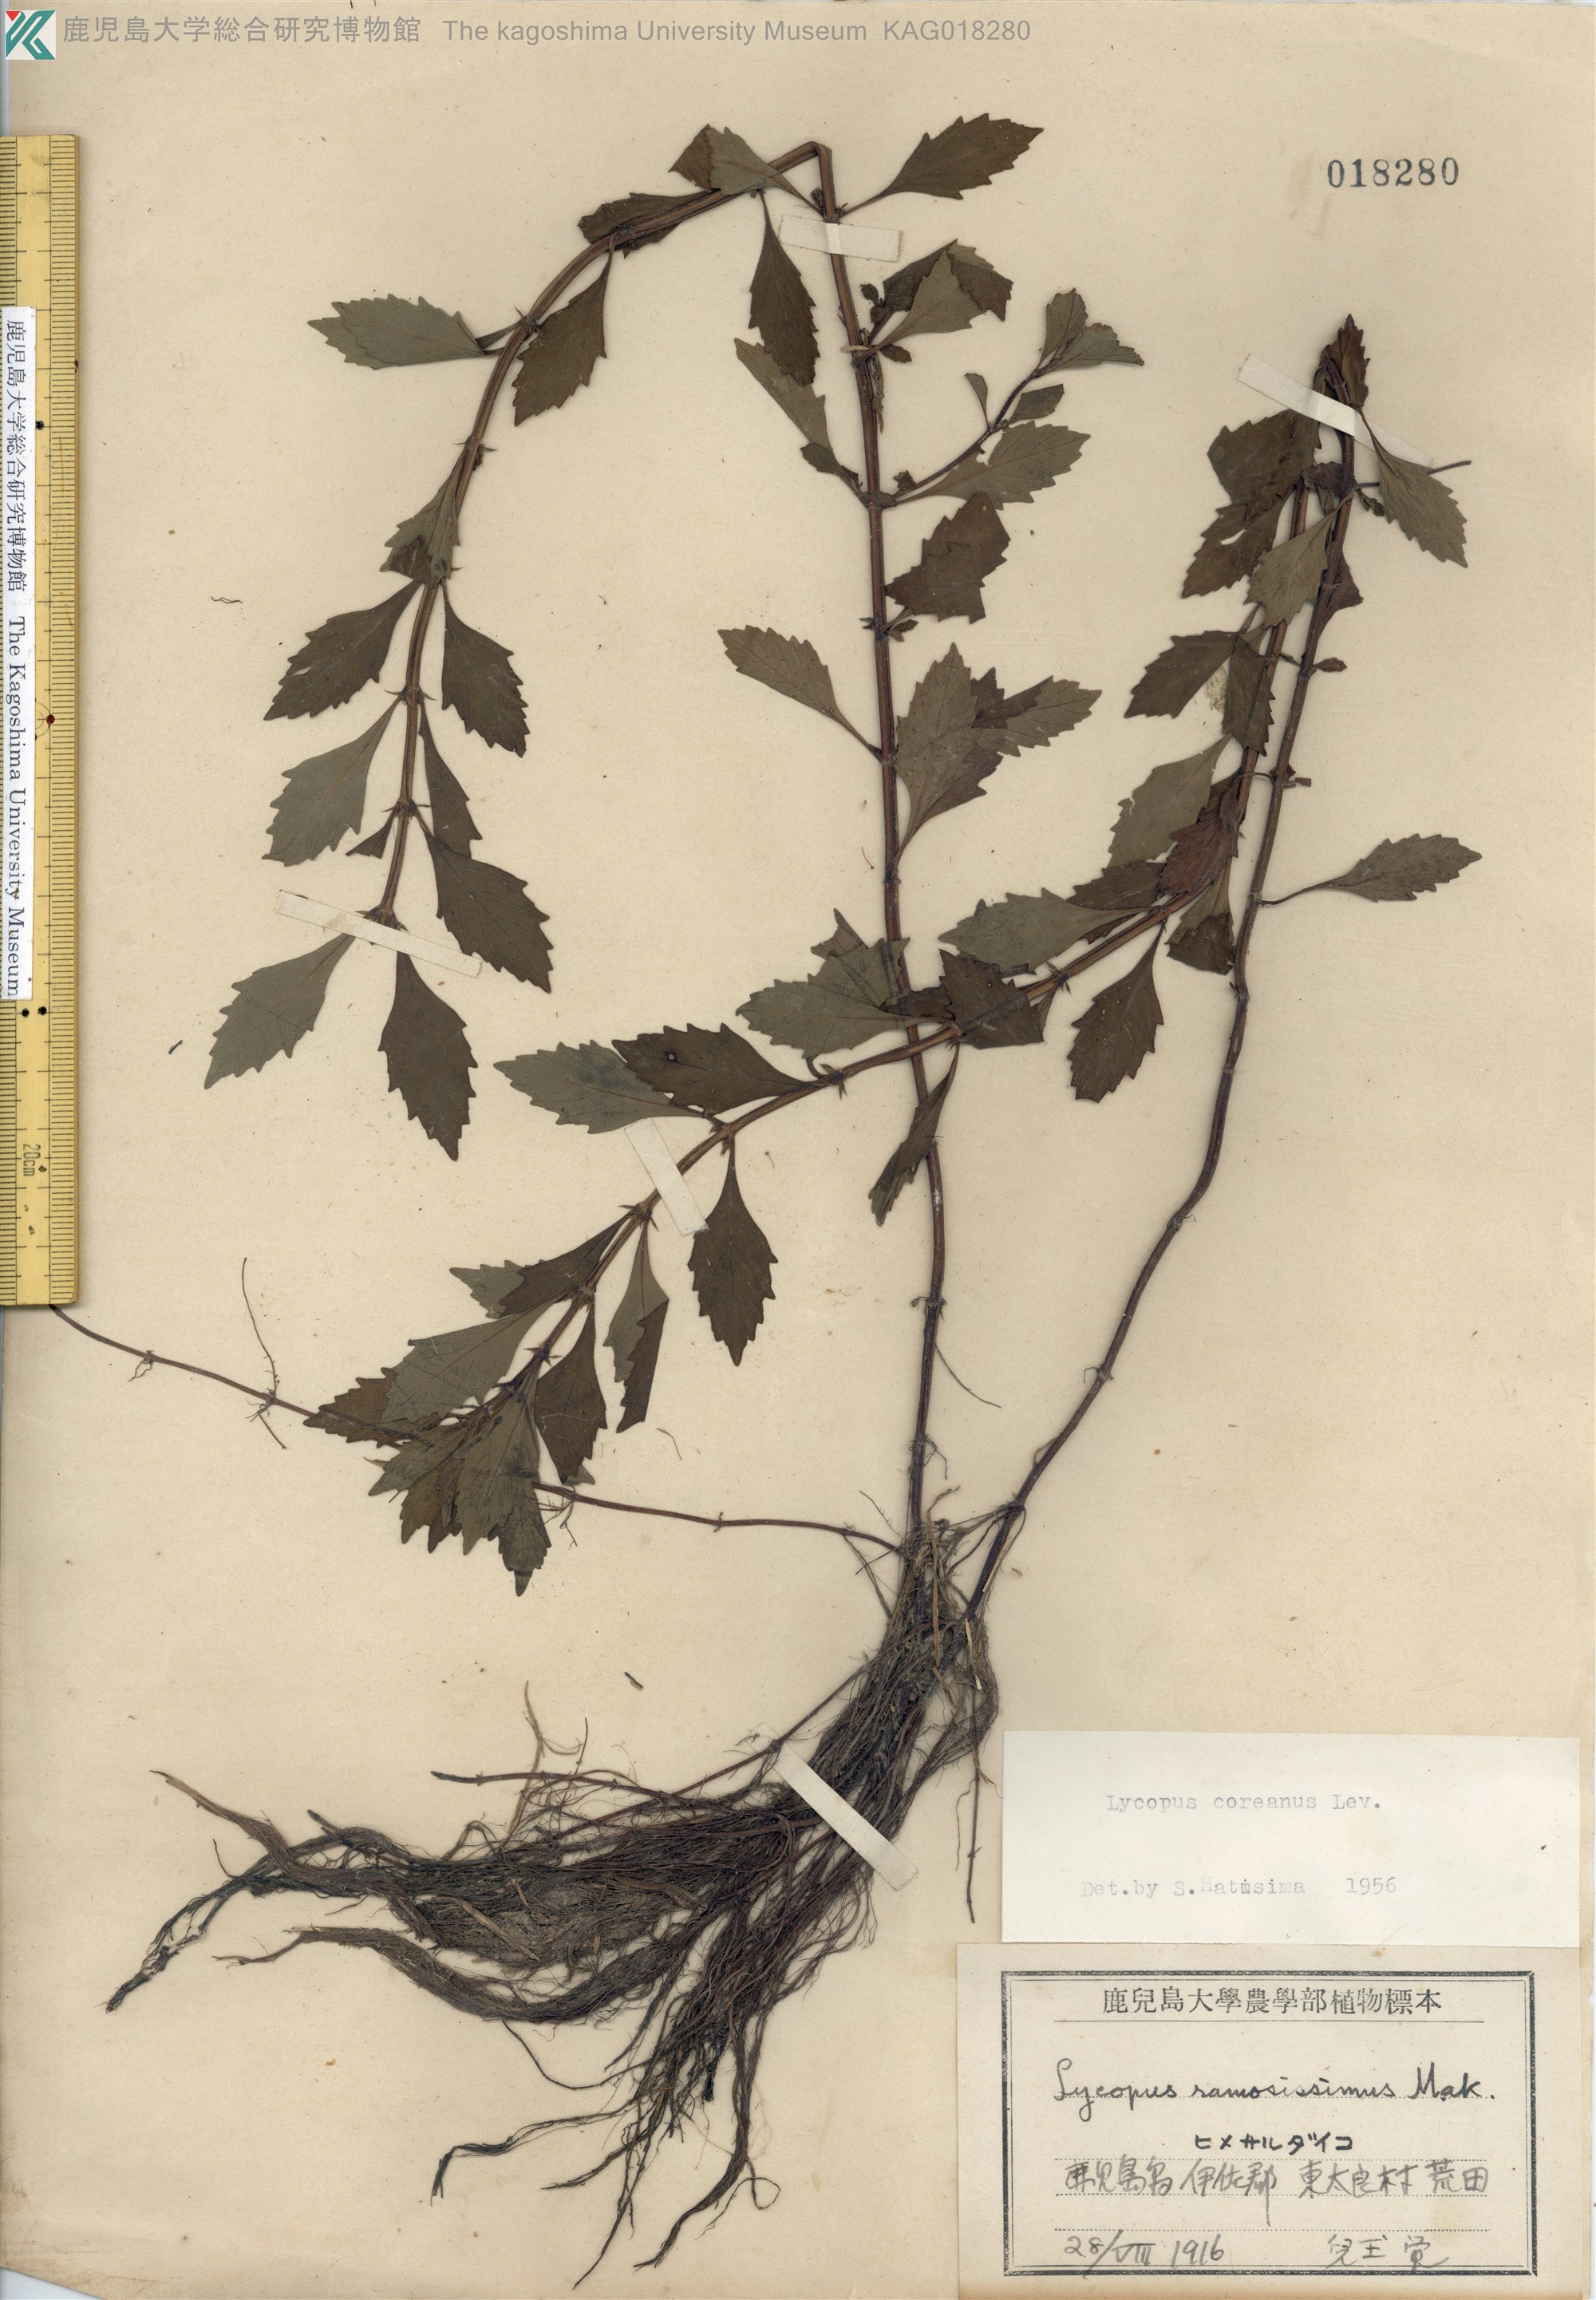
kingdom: Plantae
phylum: Tracheophyta
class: Magnoliopsida
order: Lamiales
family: Lamiaceae
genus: Lycopus
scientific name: Lycopus cavaleriei
